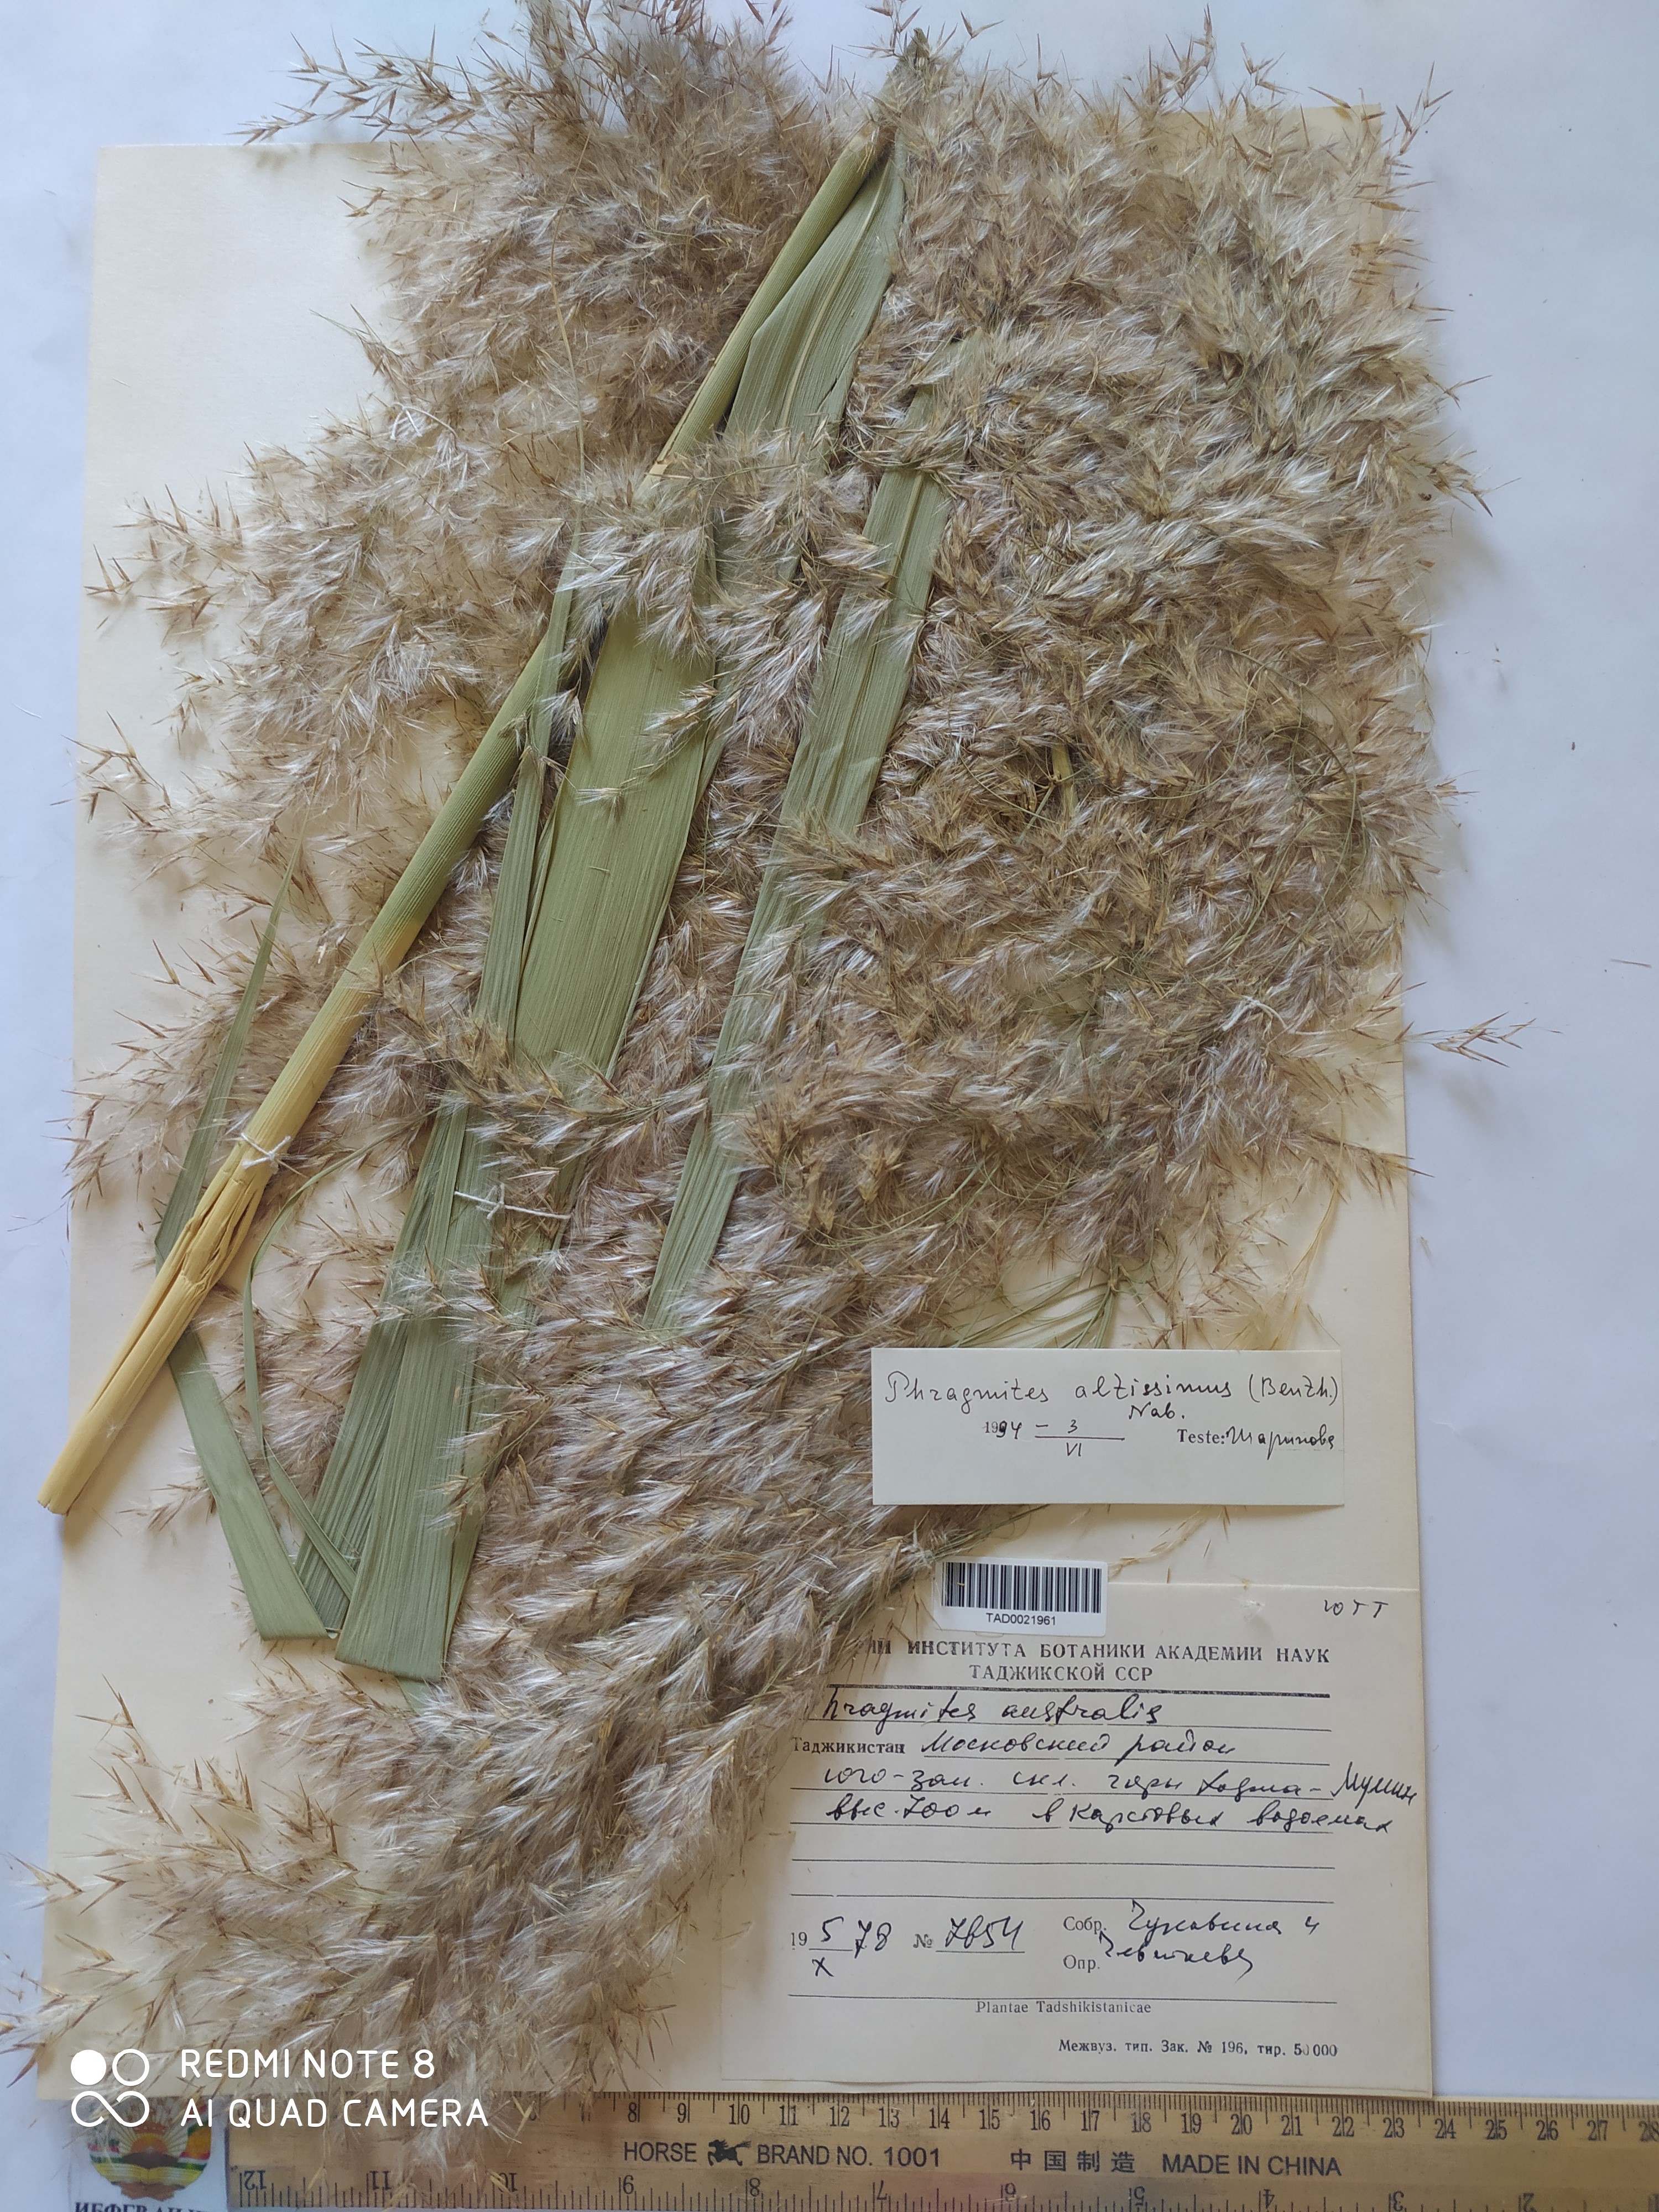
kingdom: Plantae
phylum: Tracheophyta
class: Liliopsida
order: Poales
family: Poaceae
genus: Phragmites
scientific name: Phragmites australis
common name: Common reed
